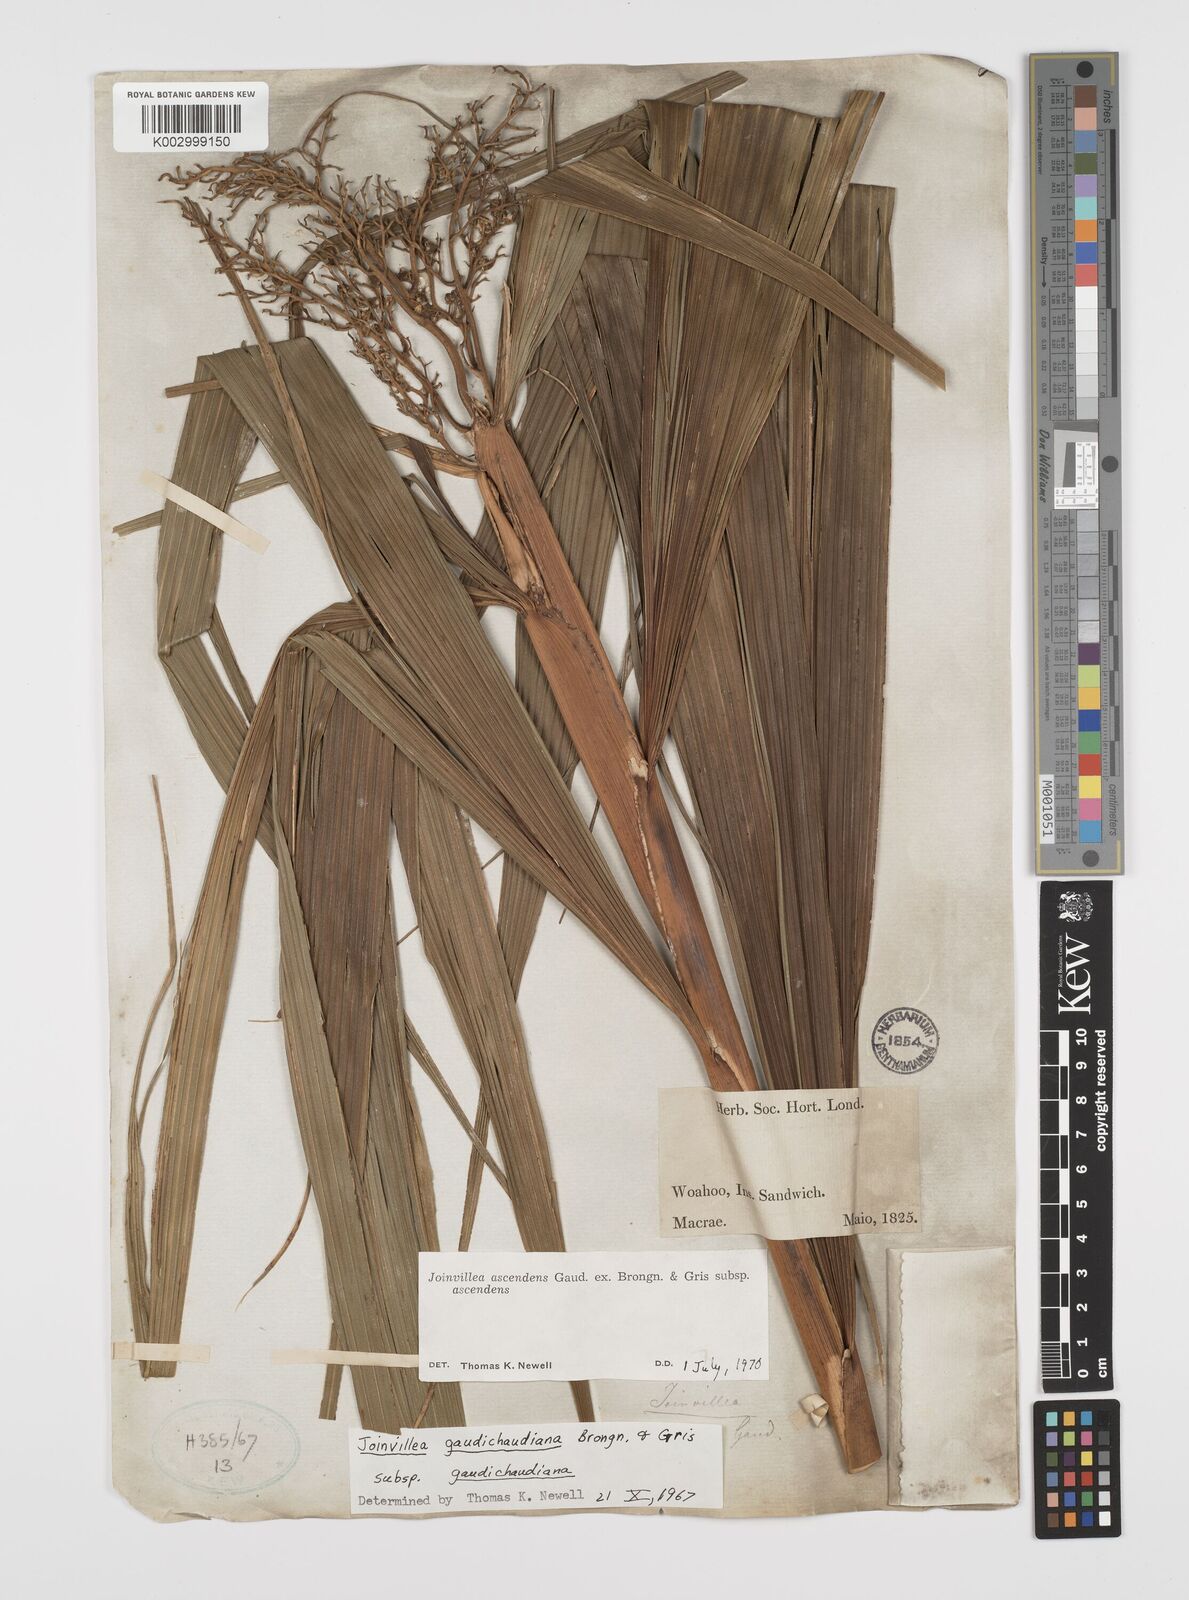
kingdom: Plantae
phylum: Tracheophyta
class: Liliopsida
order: Poales
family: Joinvilleaceae
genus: Joinvillea
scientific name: Joinvillea ascendens
